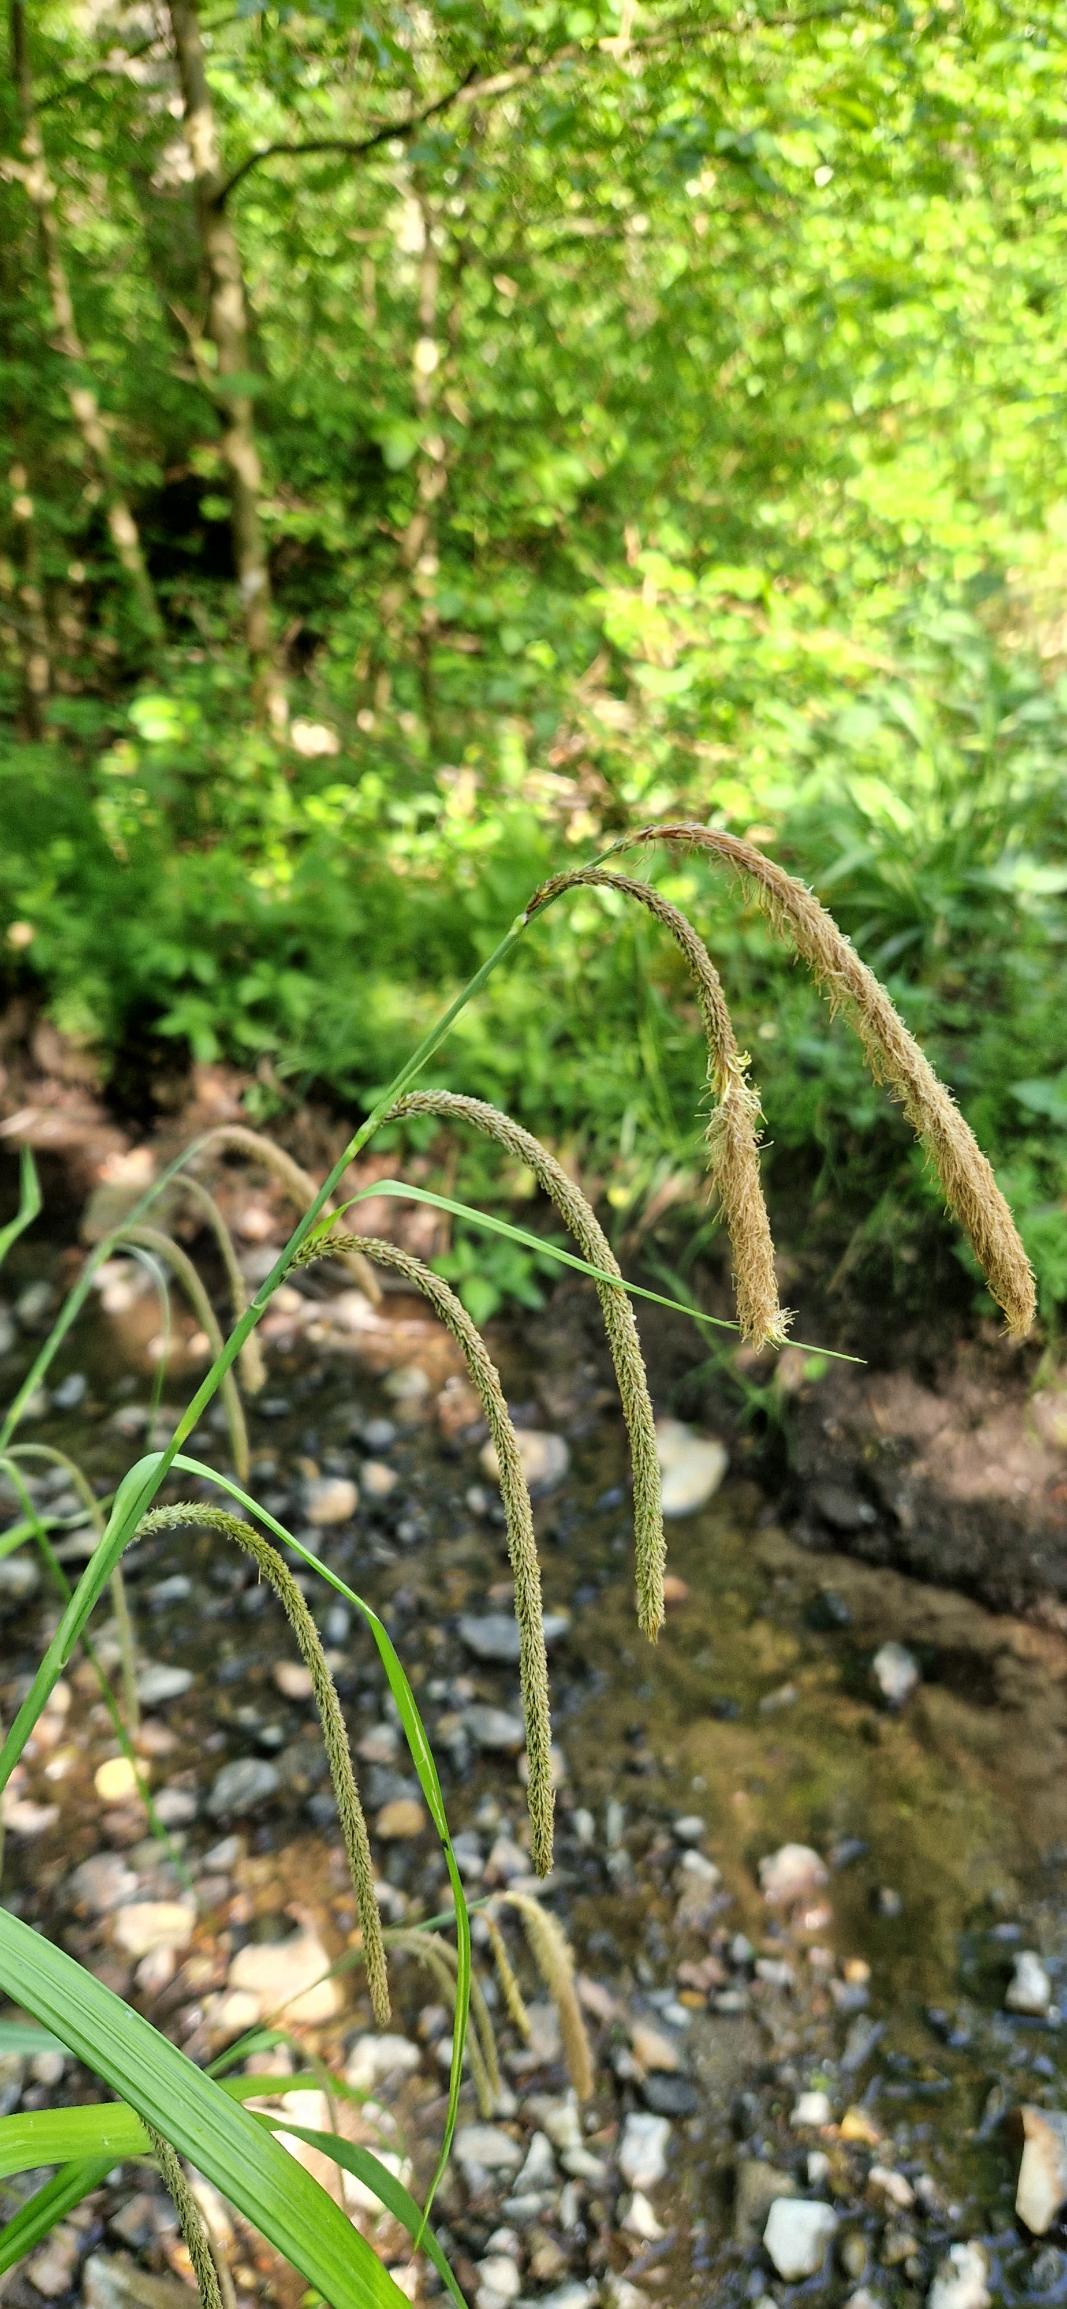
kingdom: Plantae
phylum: Tracheophyta
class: Liliopsida
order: Poales
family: Cyperaceae
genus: Carex
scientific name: Carex pendula
